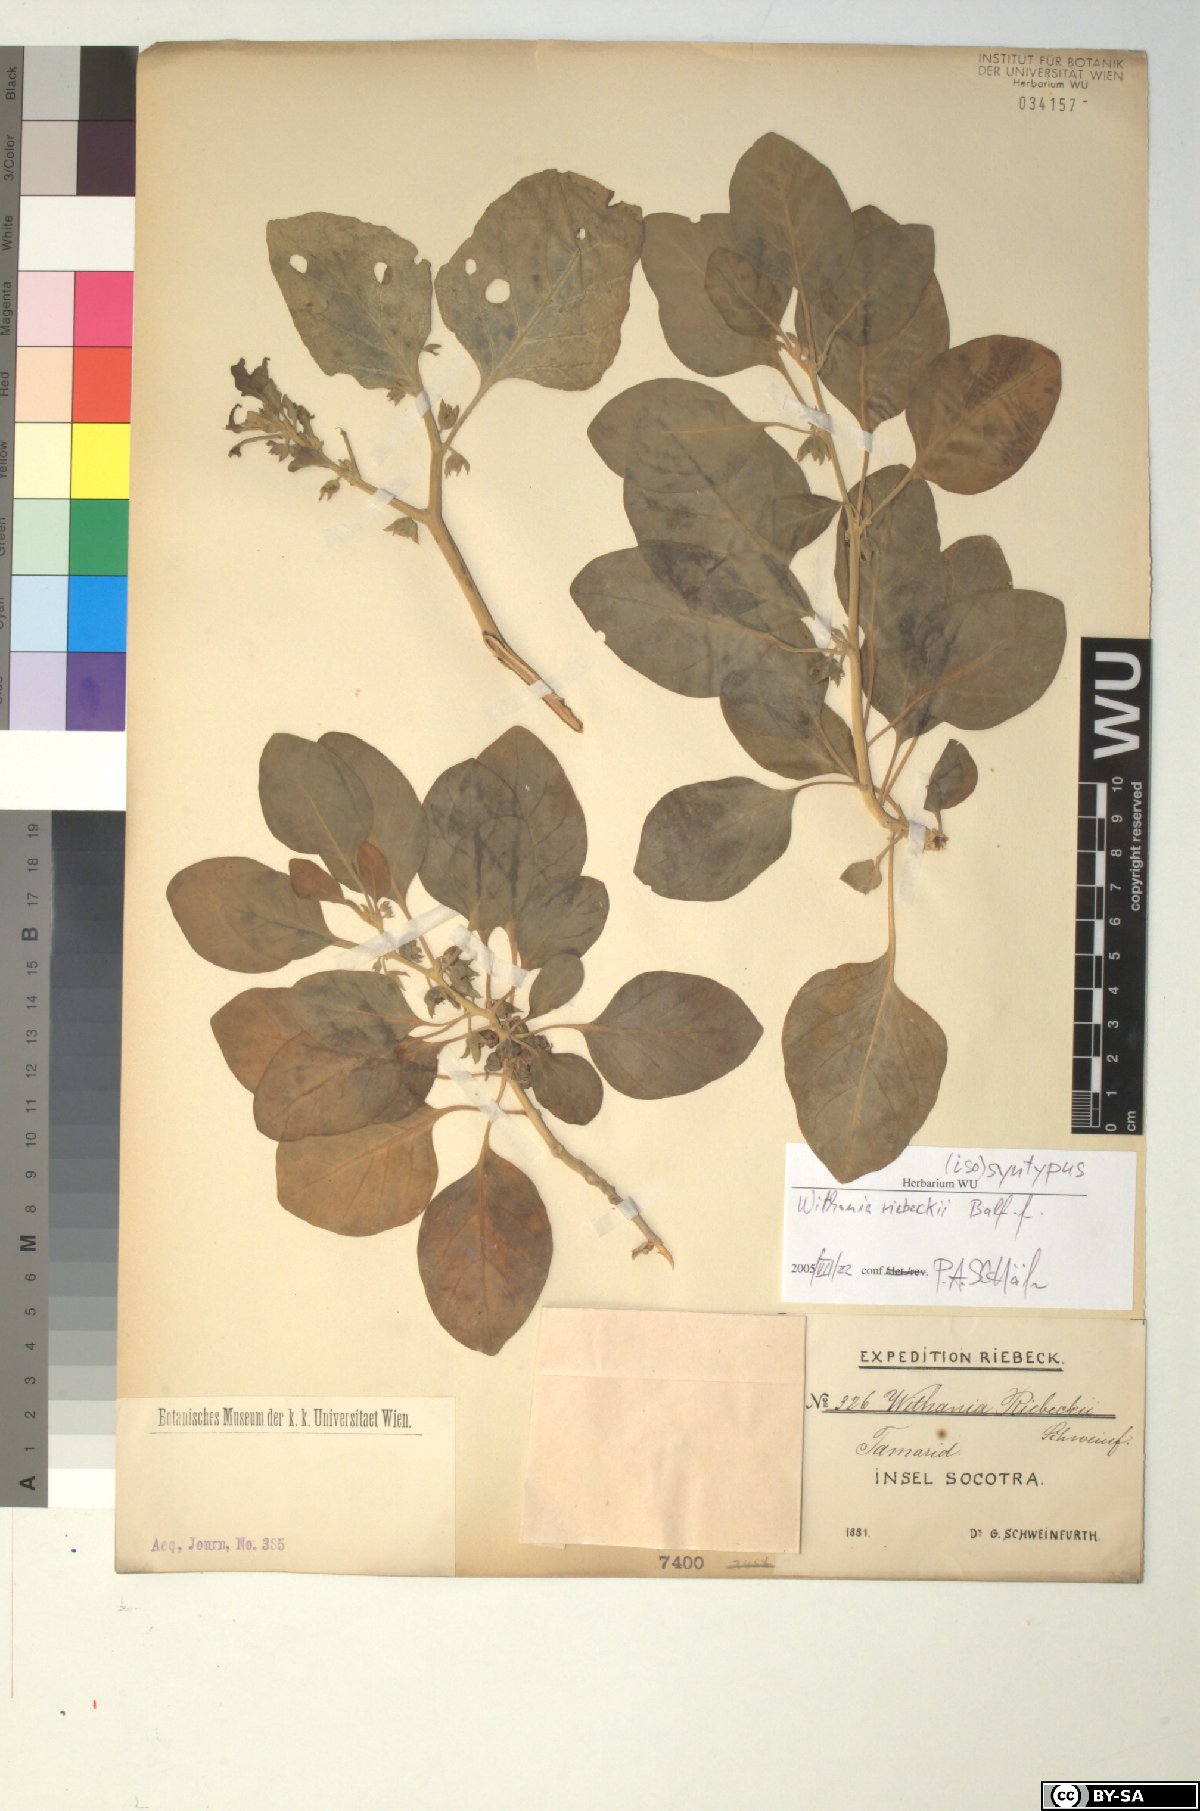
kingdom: Plantae
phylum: Tracheophyta
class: Magnoliopsida
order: Solanales
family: Solanaceae
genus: Withania
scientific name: Withania riebeckii
